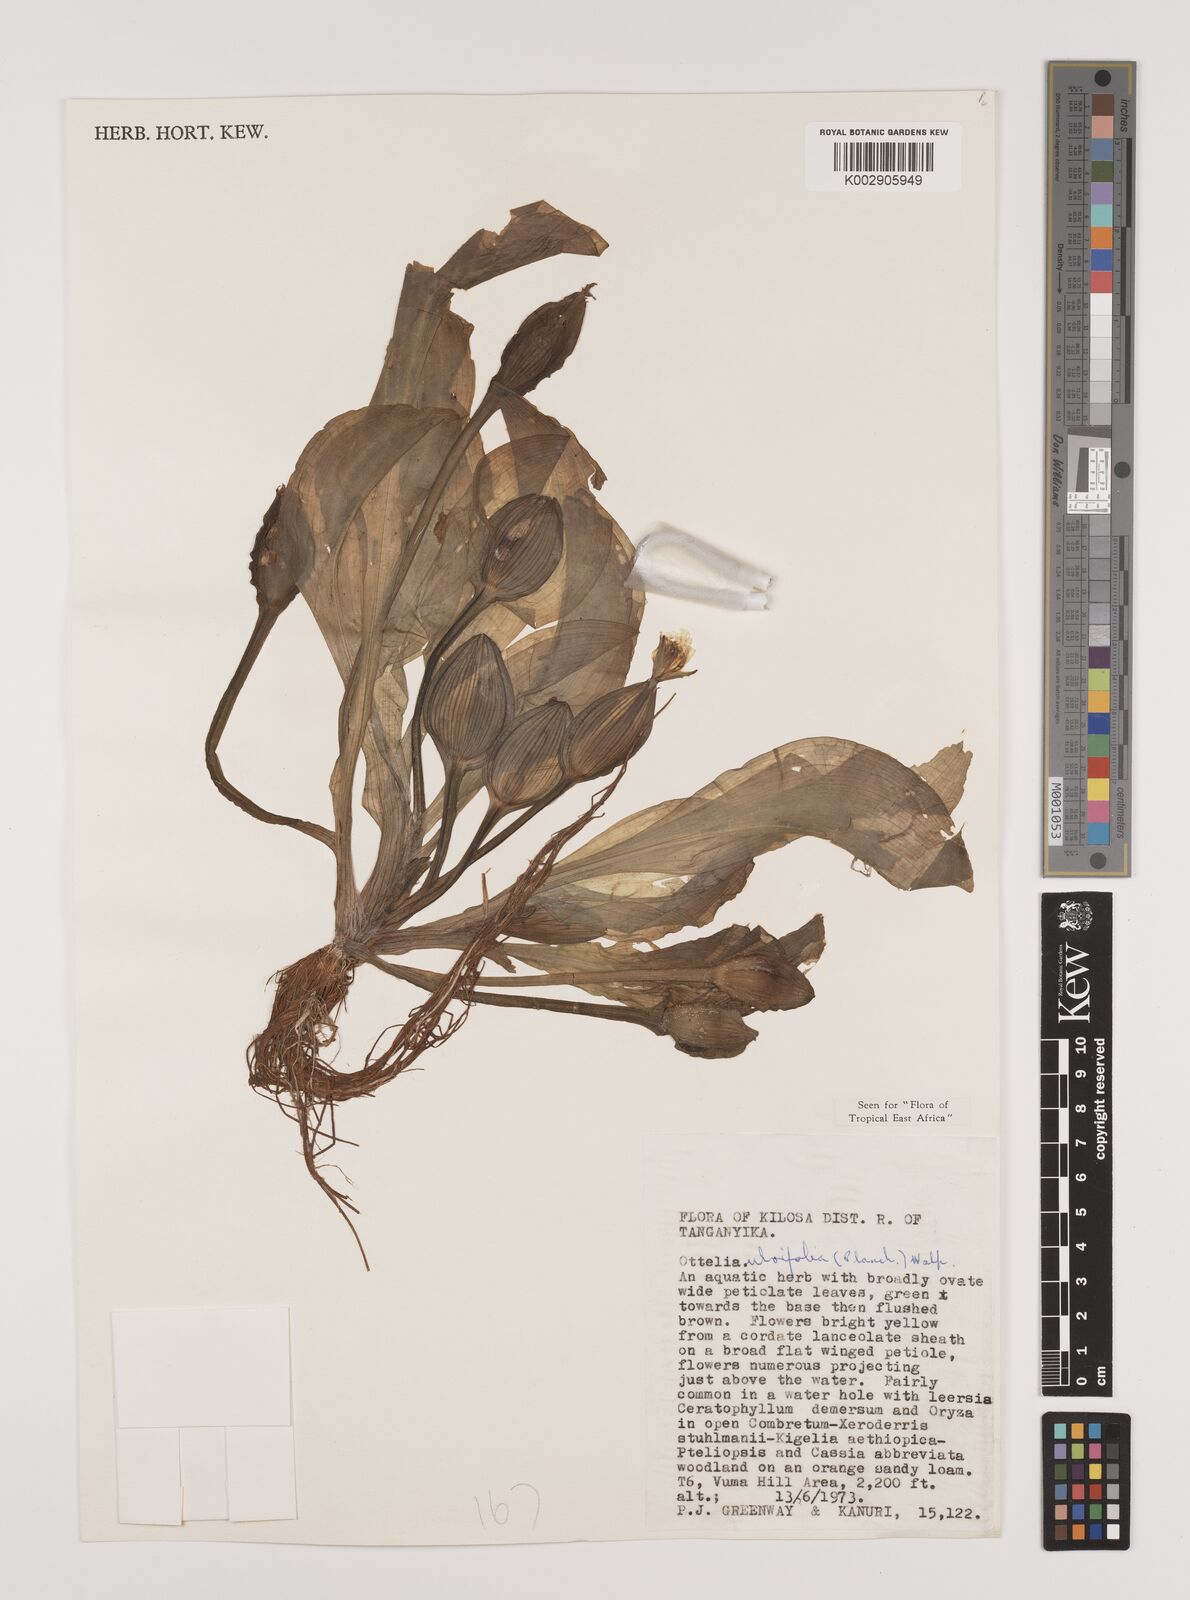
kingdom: Plantae
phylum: Tracheophyta
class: Liliopsida
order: Alismatales
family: Hydrocharitaceae
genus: Ottelia
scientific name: Ottelia ulvifolia
